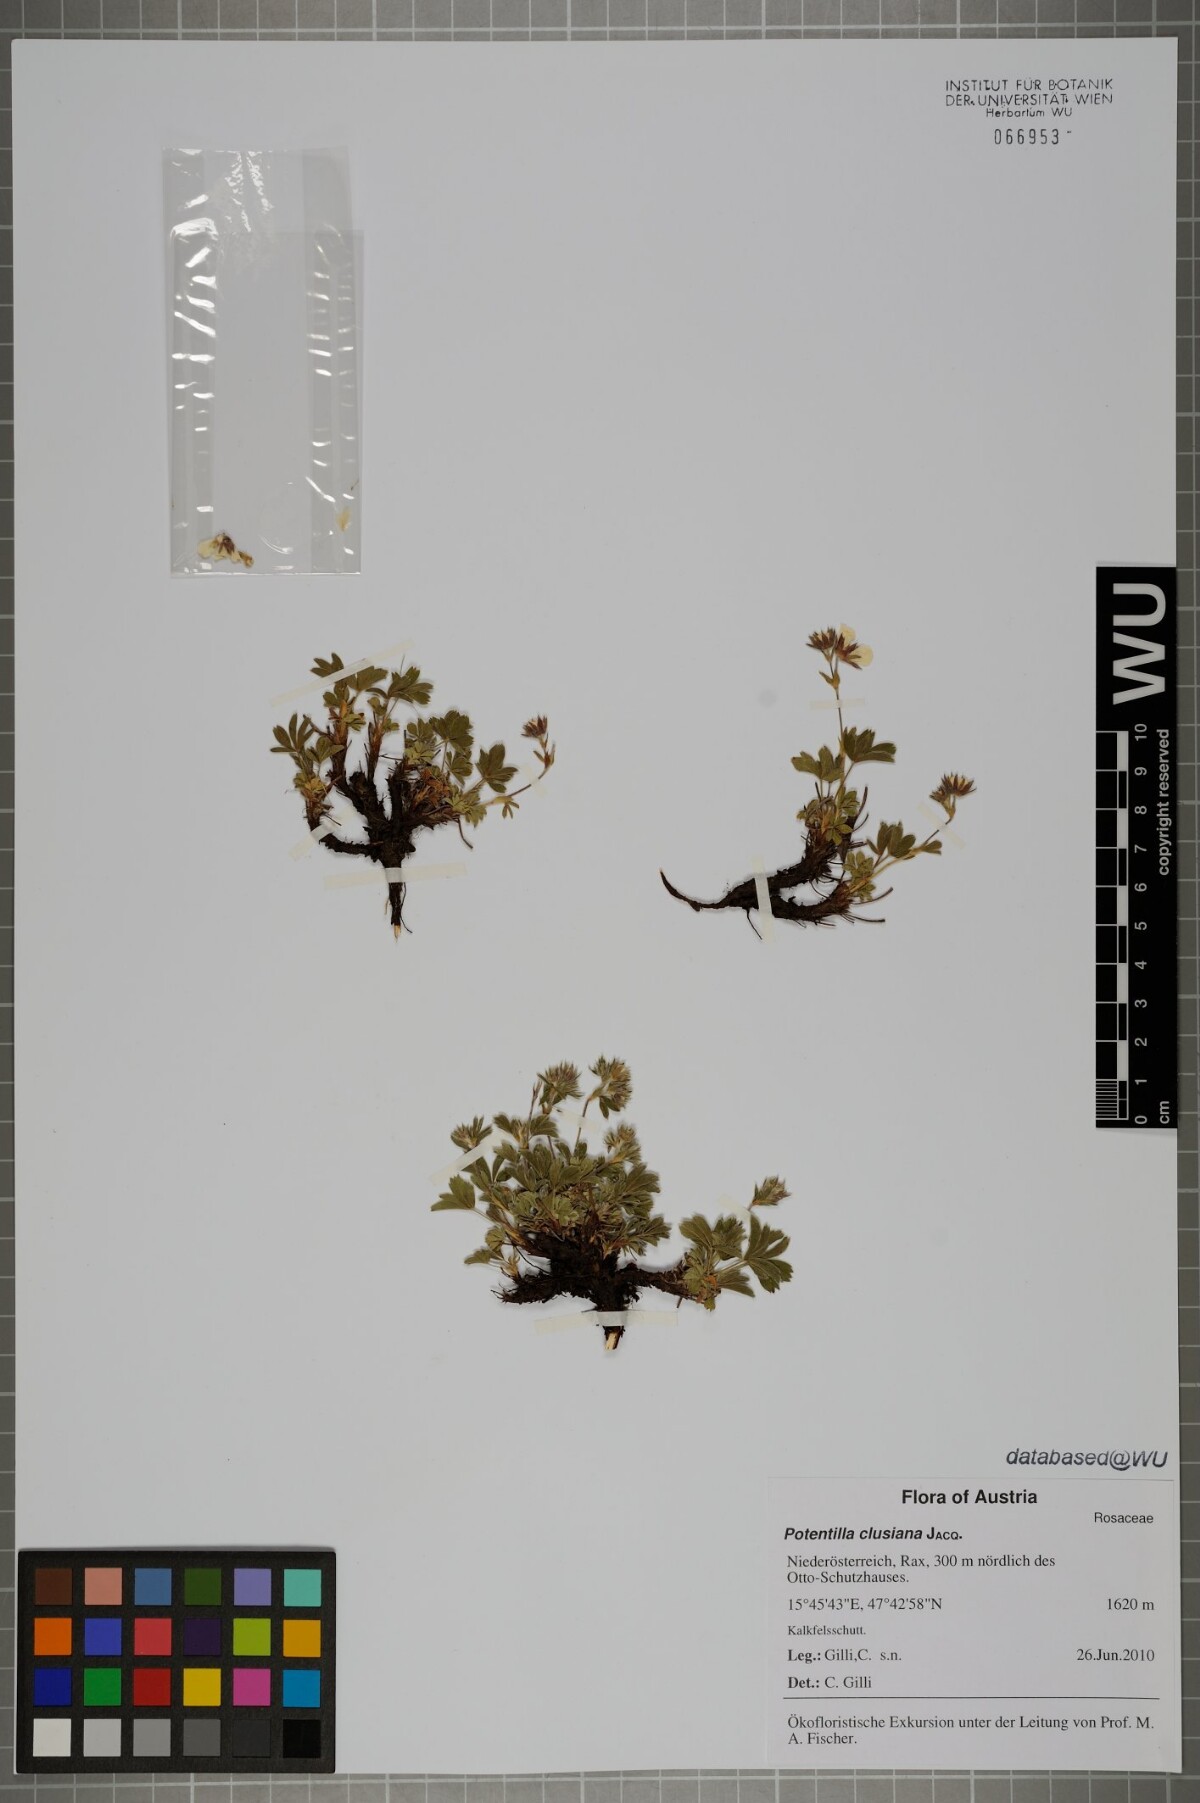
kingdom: Plantae
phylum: Tracheophyta
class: Magnoliopsida
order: Rosales
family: Rosaceae
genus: Potentilla
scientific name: Potentilla clusiana
